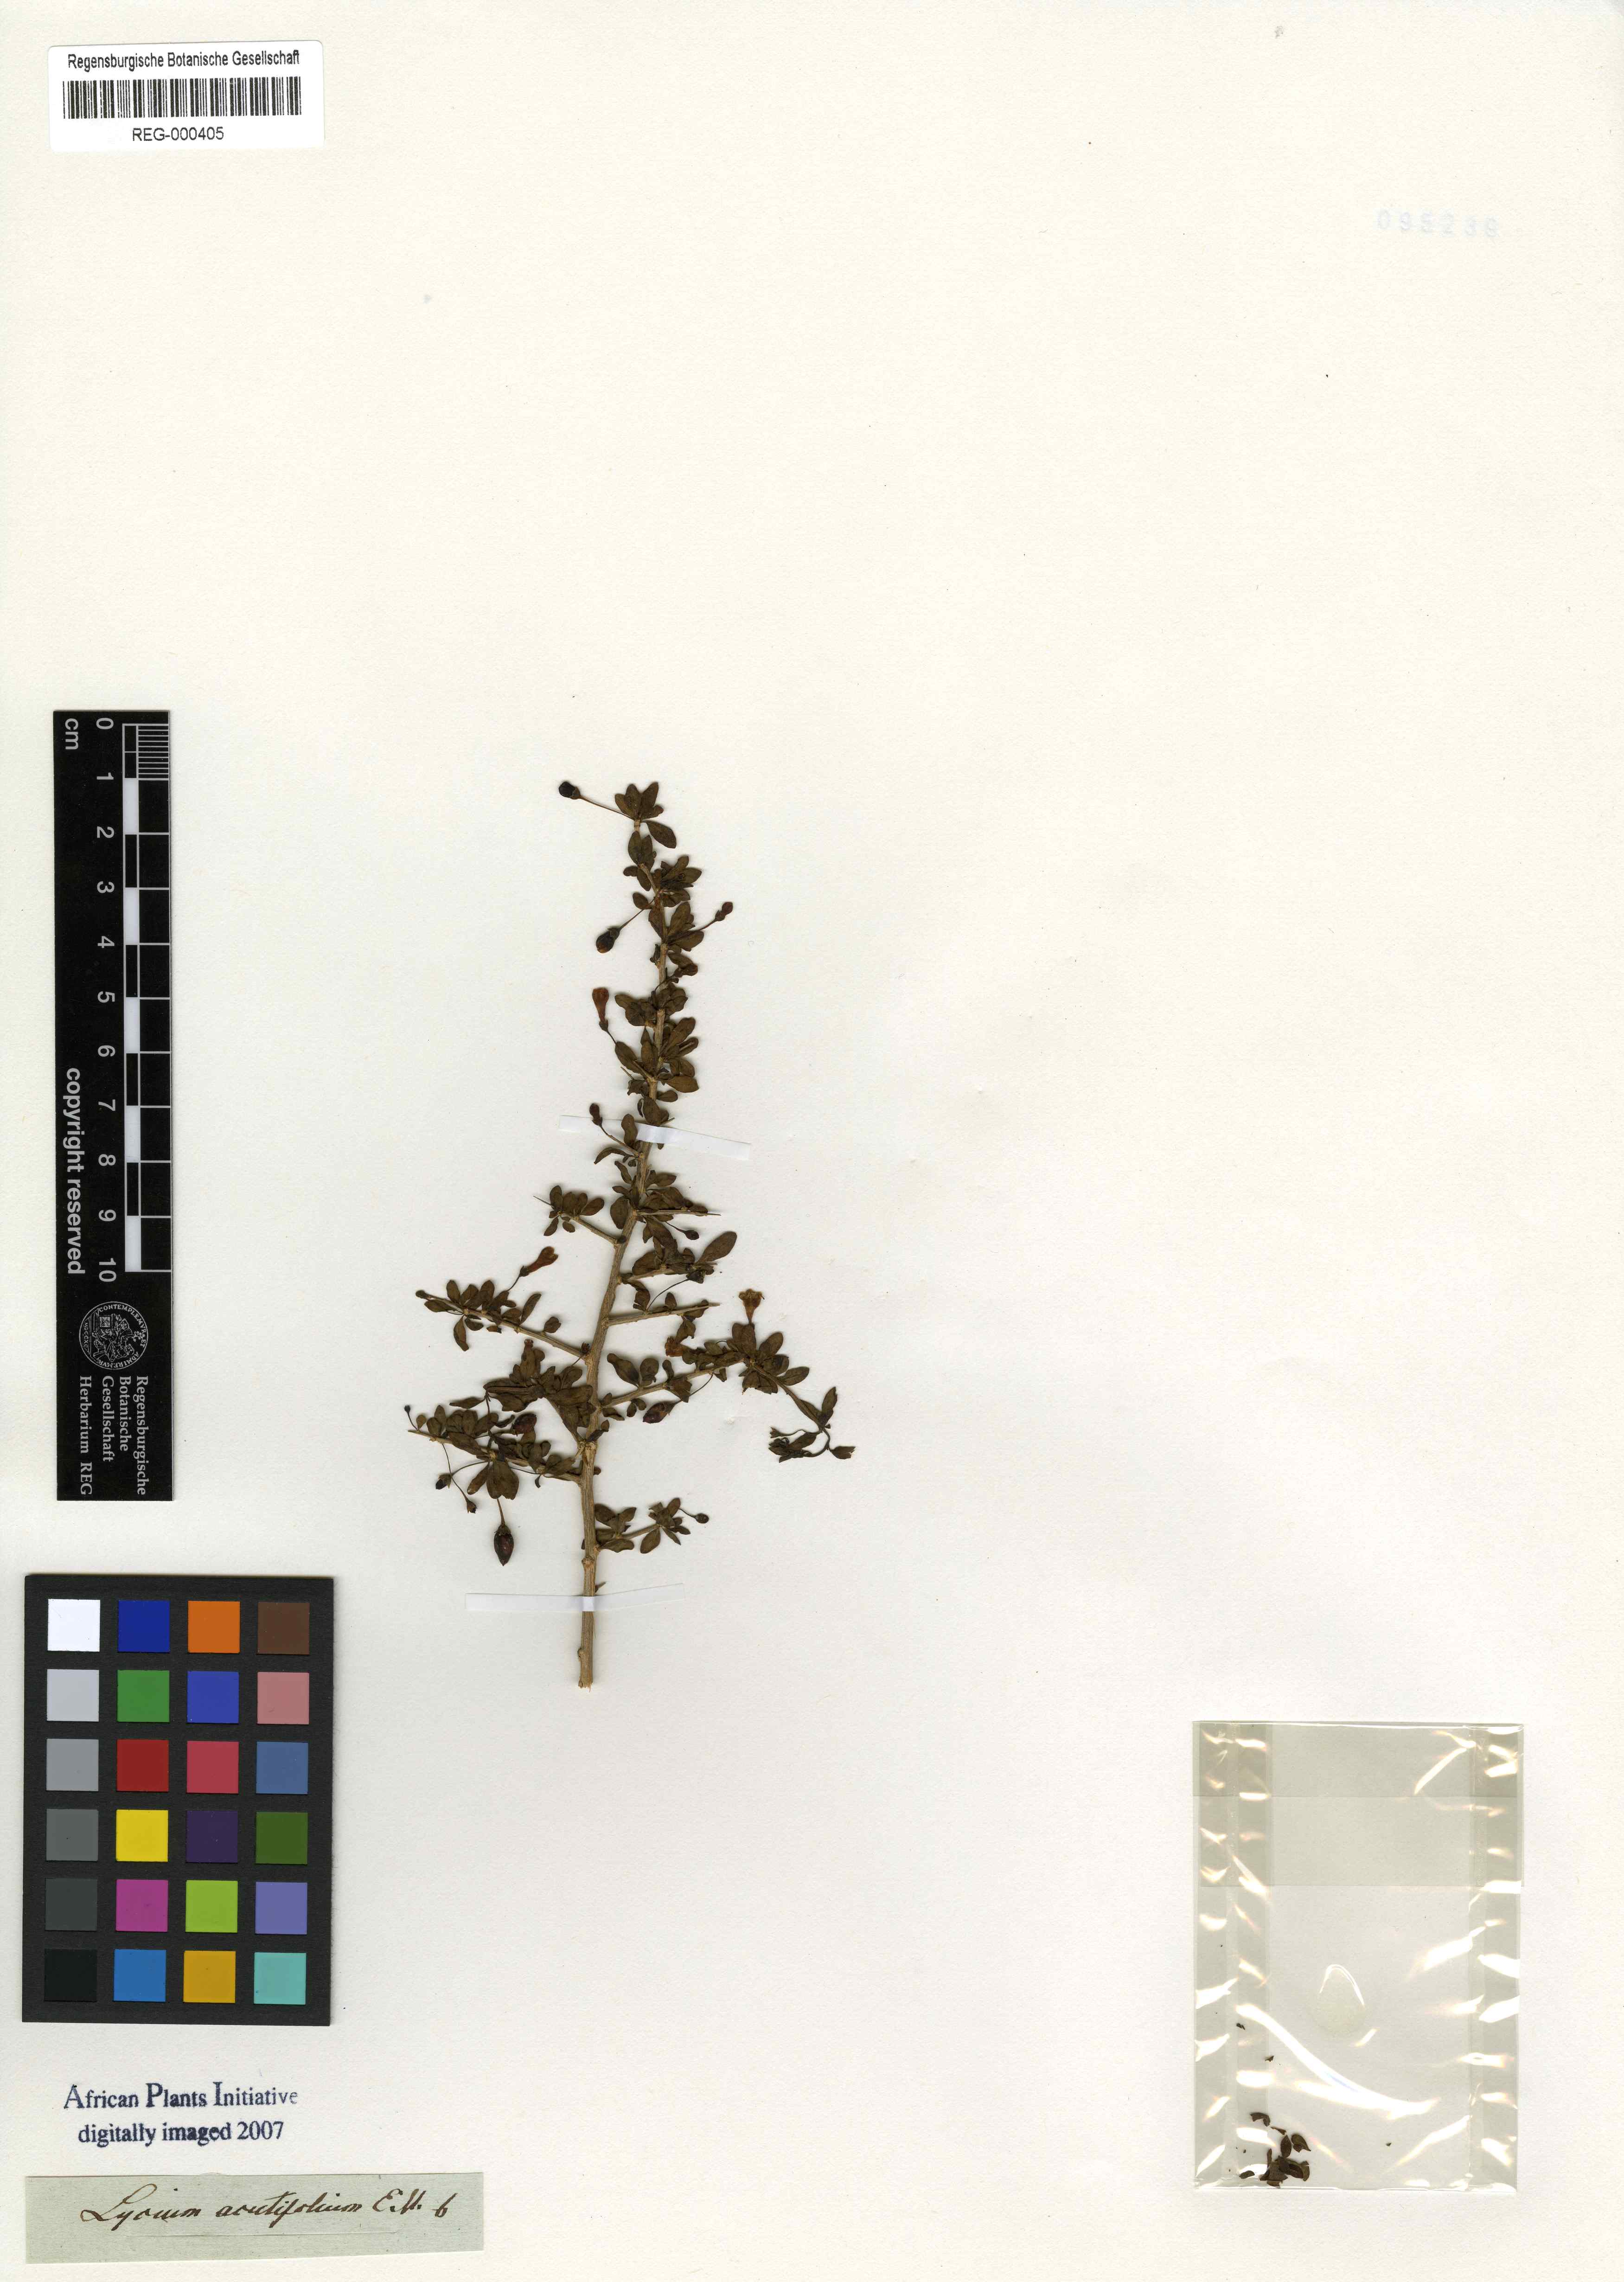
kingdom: Plantae
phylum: Tracheophyta
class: Magnoliopsida
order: Solanales
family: Solanaceae
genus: Lycium
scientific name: Lycium acutifolium
